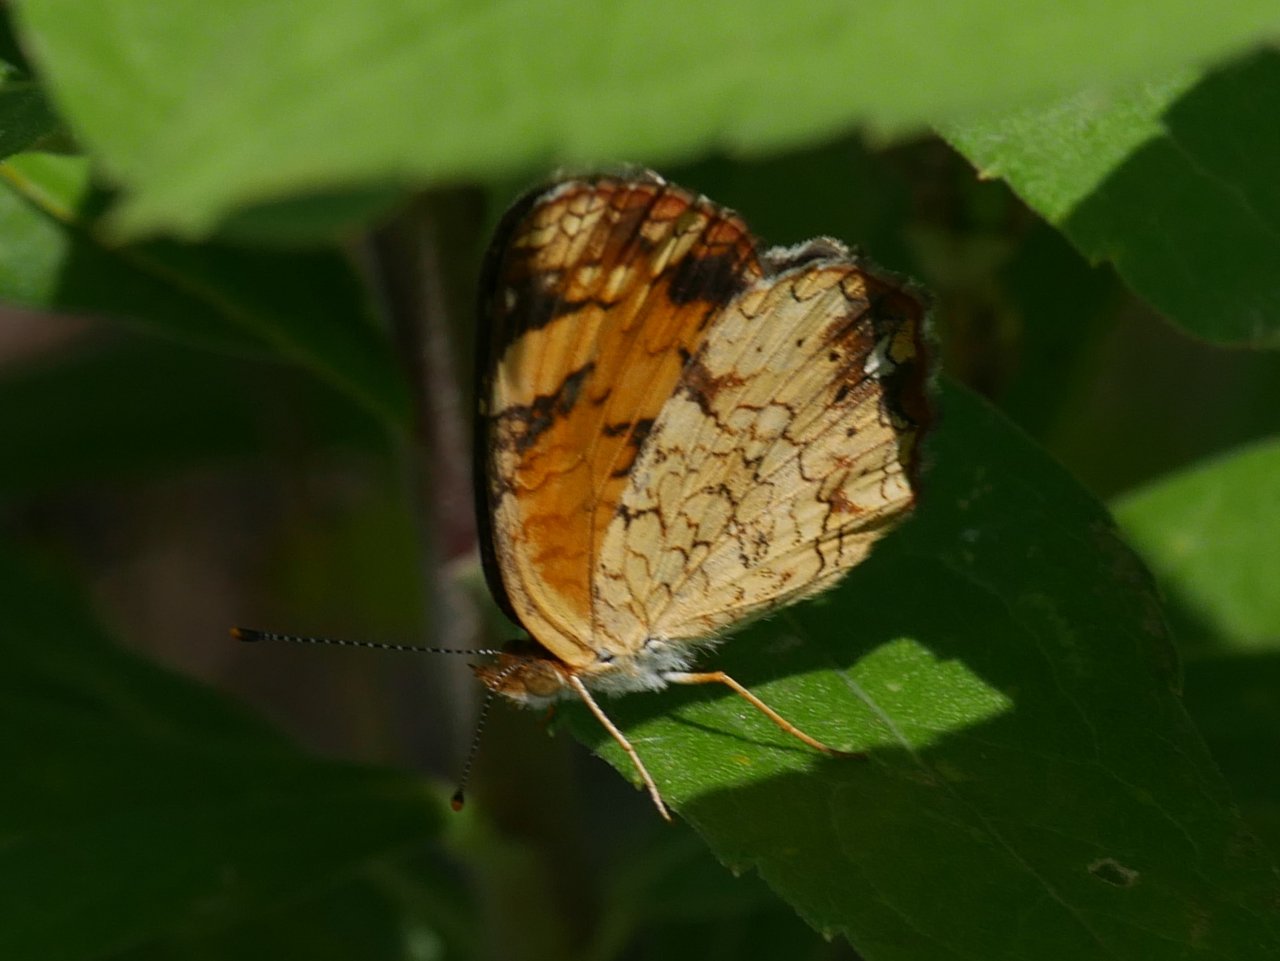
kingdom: Animalia
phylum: Arthropoda
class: Insecta
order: Lepidoptera
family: Nymphalidae
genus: Phyciodes
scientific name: Phyciodes tharos
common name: Pearl Crescent
